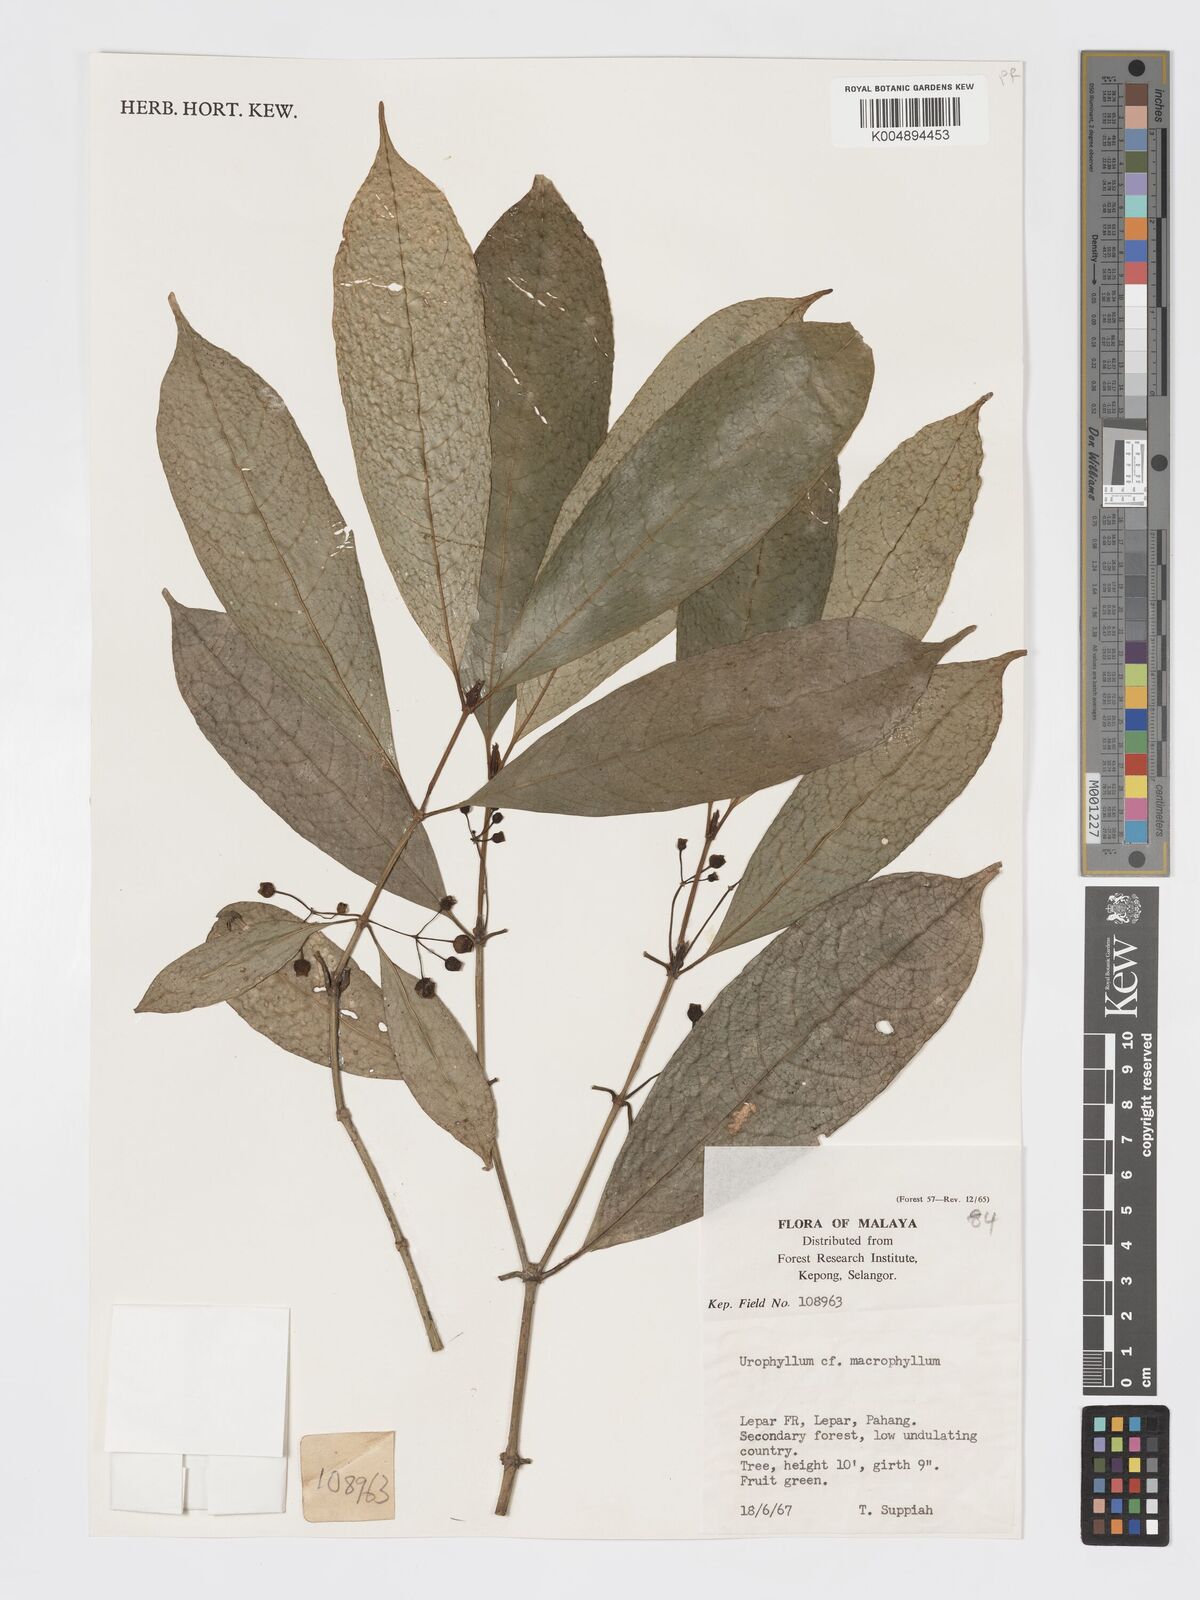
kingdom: Plantae
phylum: Tracheophyta
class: Magnoliopsida
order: Gentianales
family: Rubiaceae
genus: Urophyllum
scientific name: Urophyllum griffithianum
